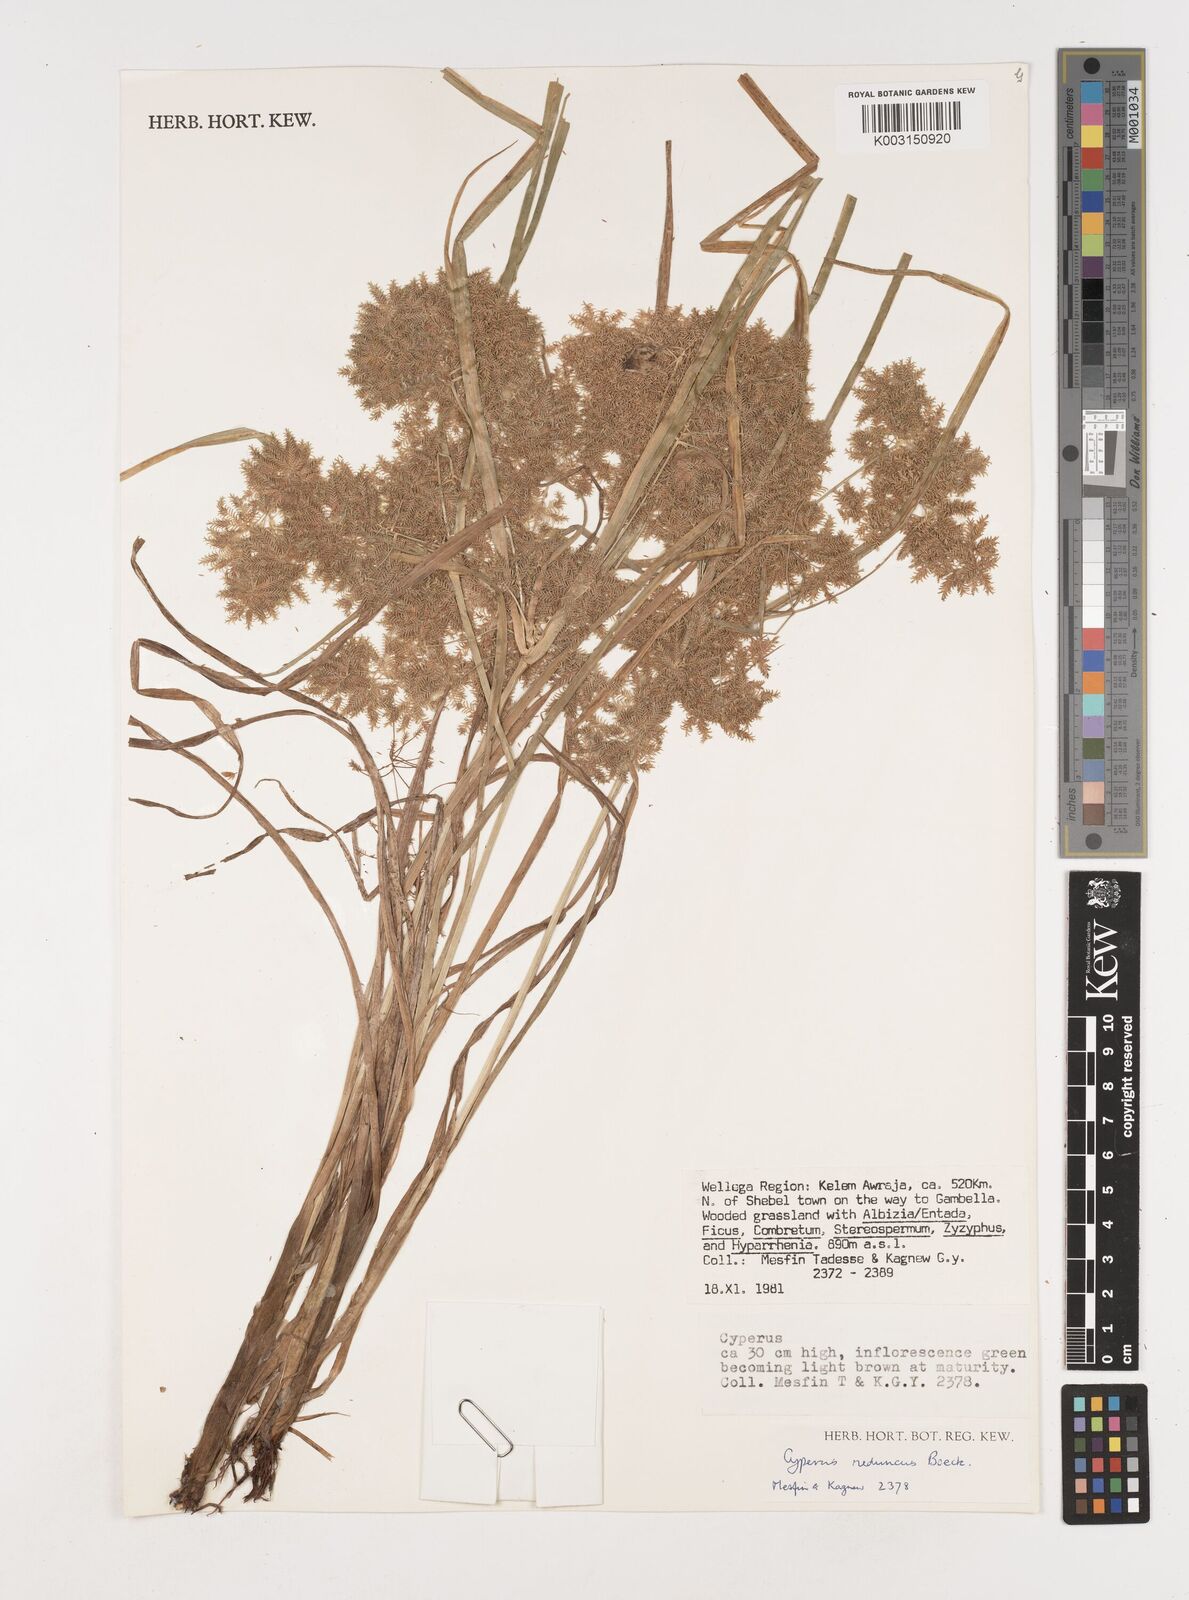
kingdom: Plantae
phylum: Tracheophyta
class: Liliopsida
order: Poales
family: Cyperaceae
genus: Cyperus
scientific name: Cyperus reduncus
